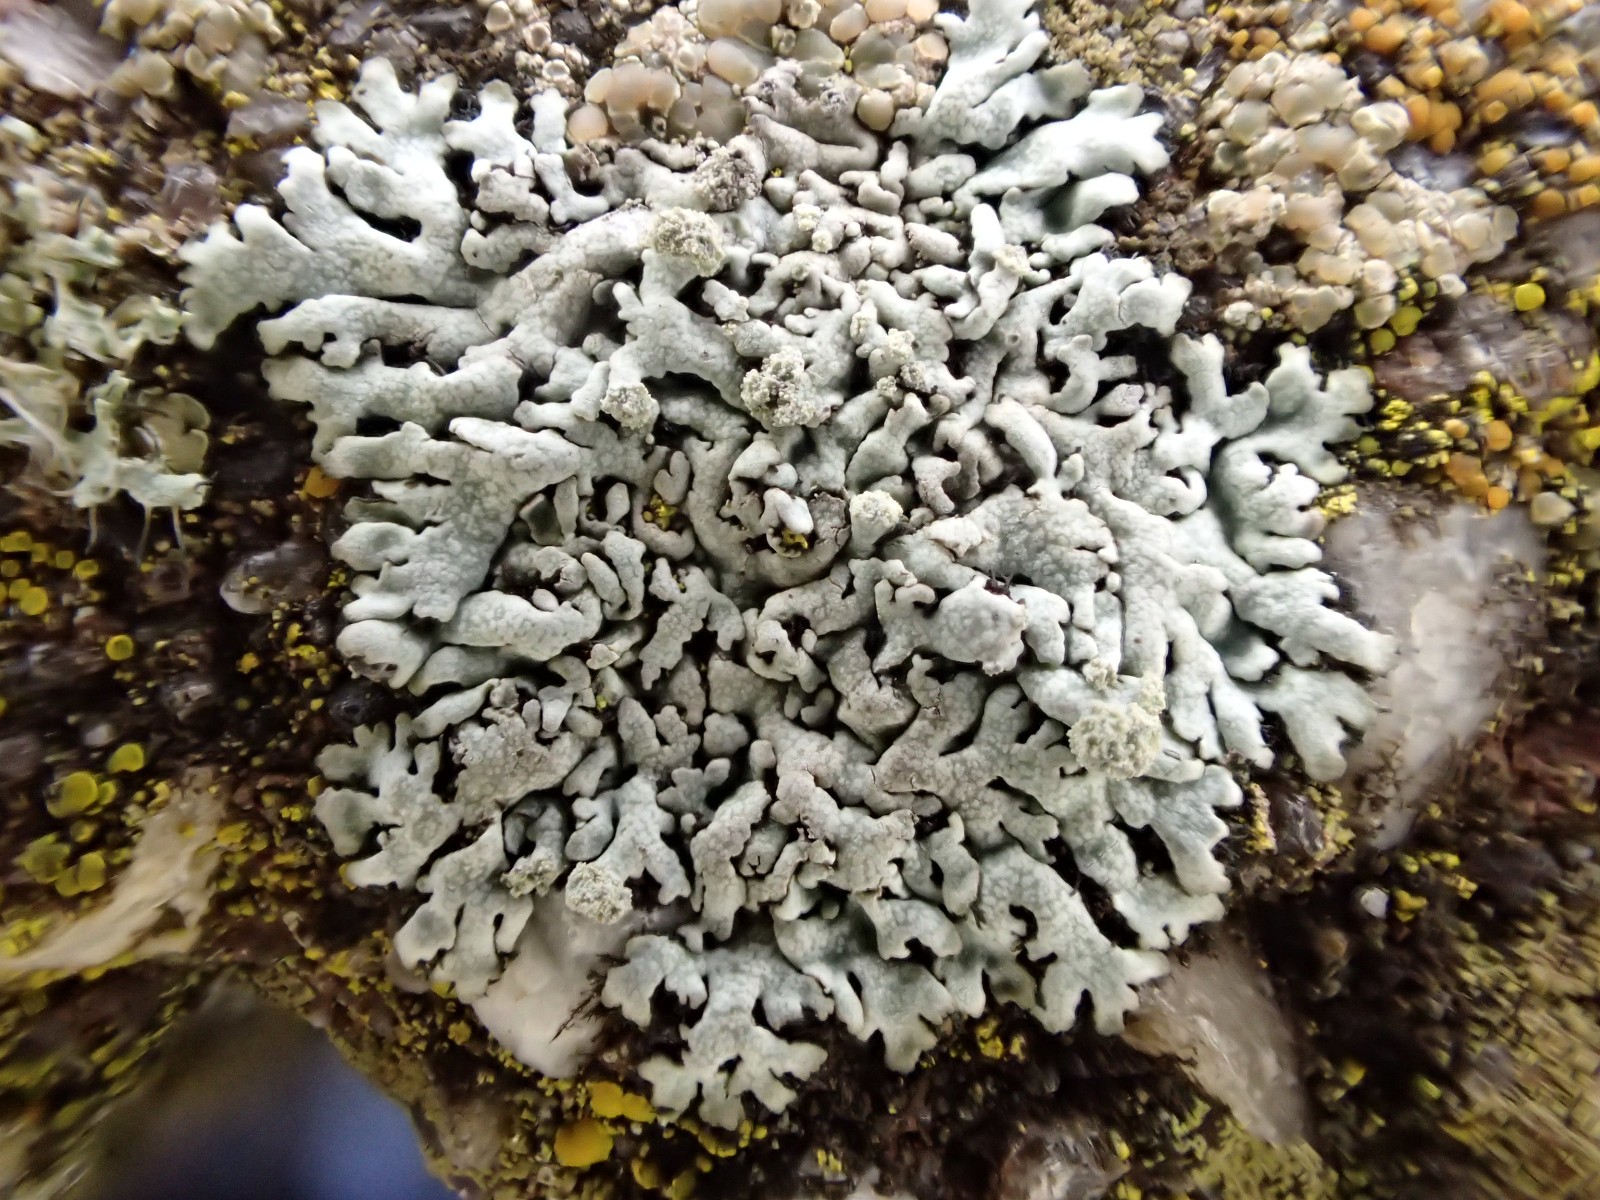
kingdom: Fungi
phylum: Ascomycota
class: Lecanoromycetes
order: Caliciales
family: Physciaceae
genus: Physcia
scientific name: Physcia caesia
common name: blågrå rosetlav
